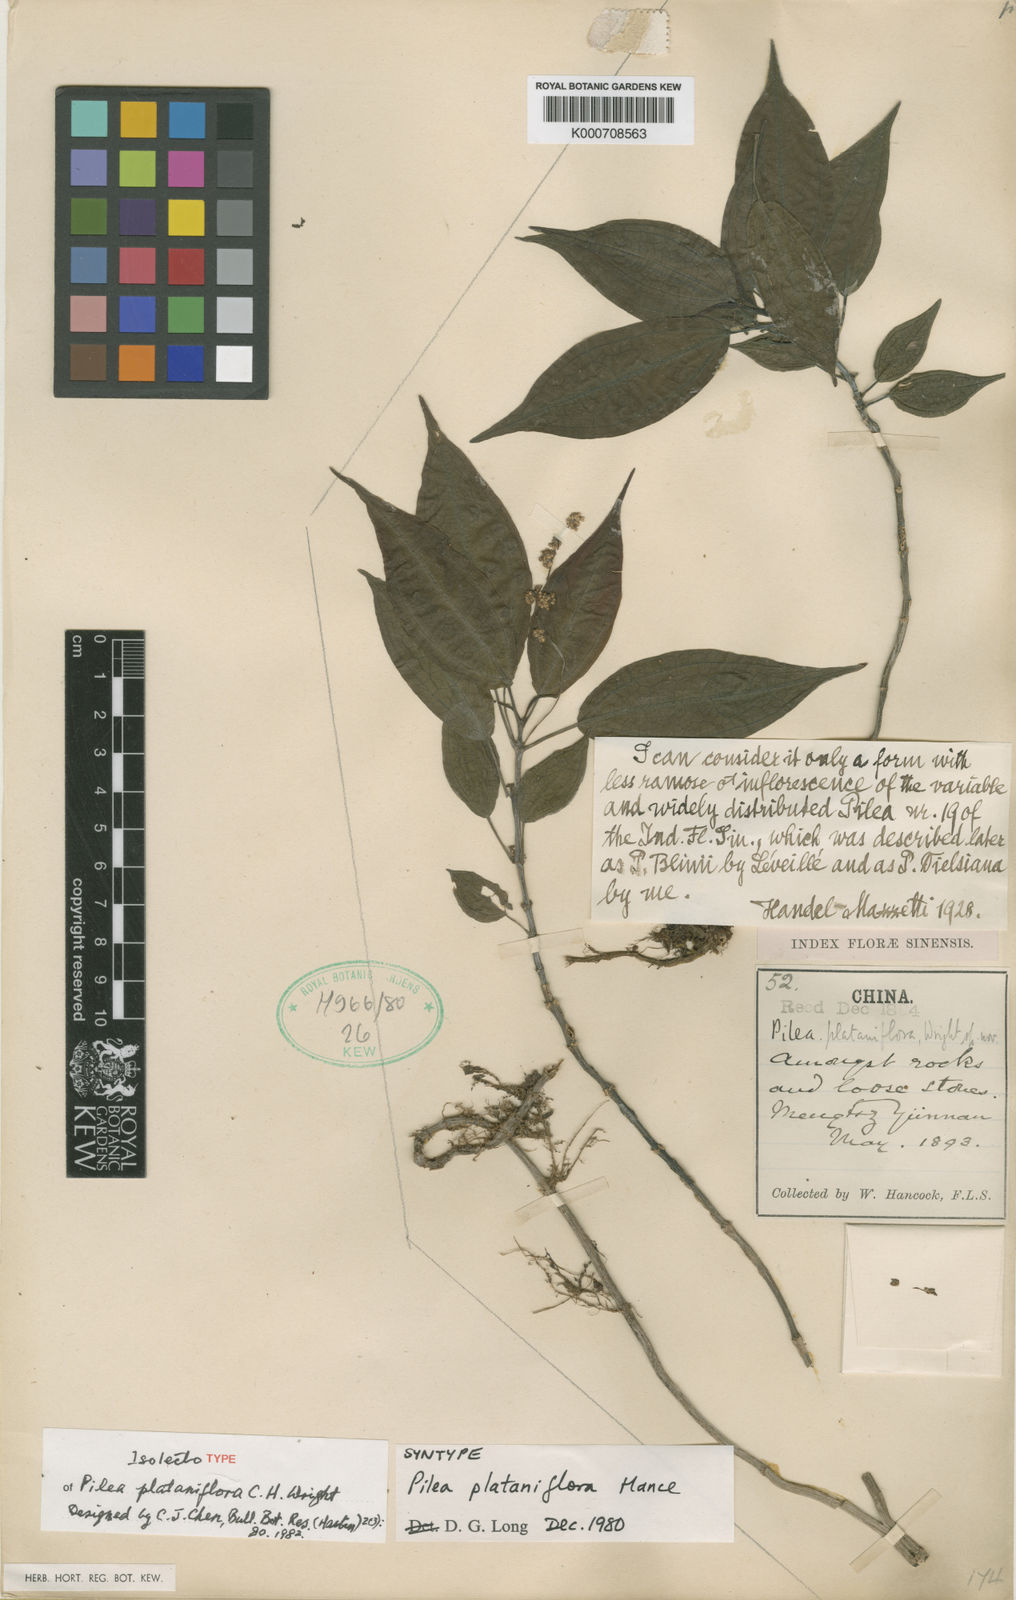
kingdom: Plantae
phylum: Tracheophyta
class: Magnoliopsida
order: Rosales
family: Urticaceae
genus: Pilea
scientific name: Pilea plataniflora
